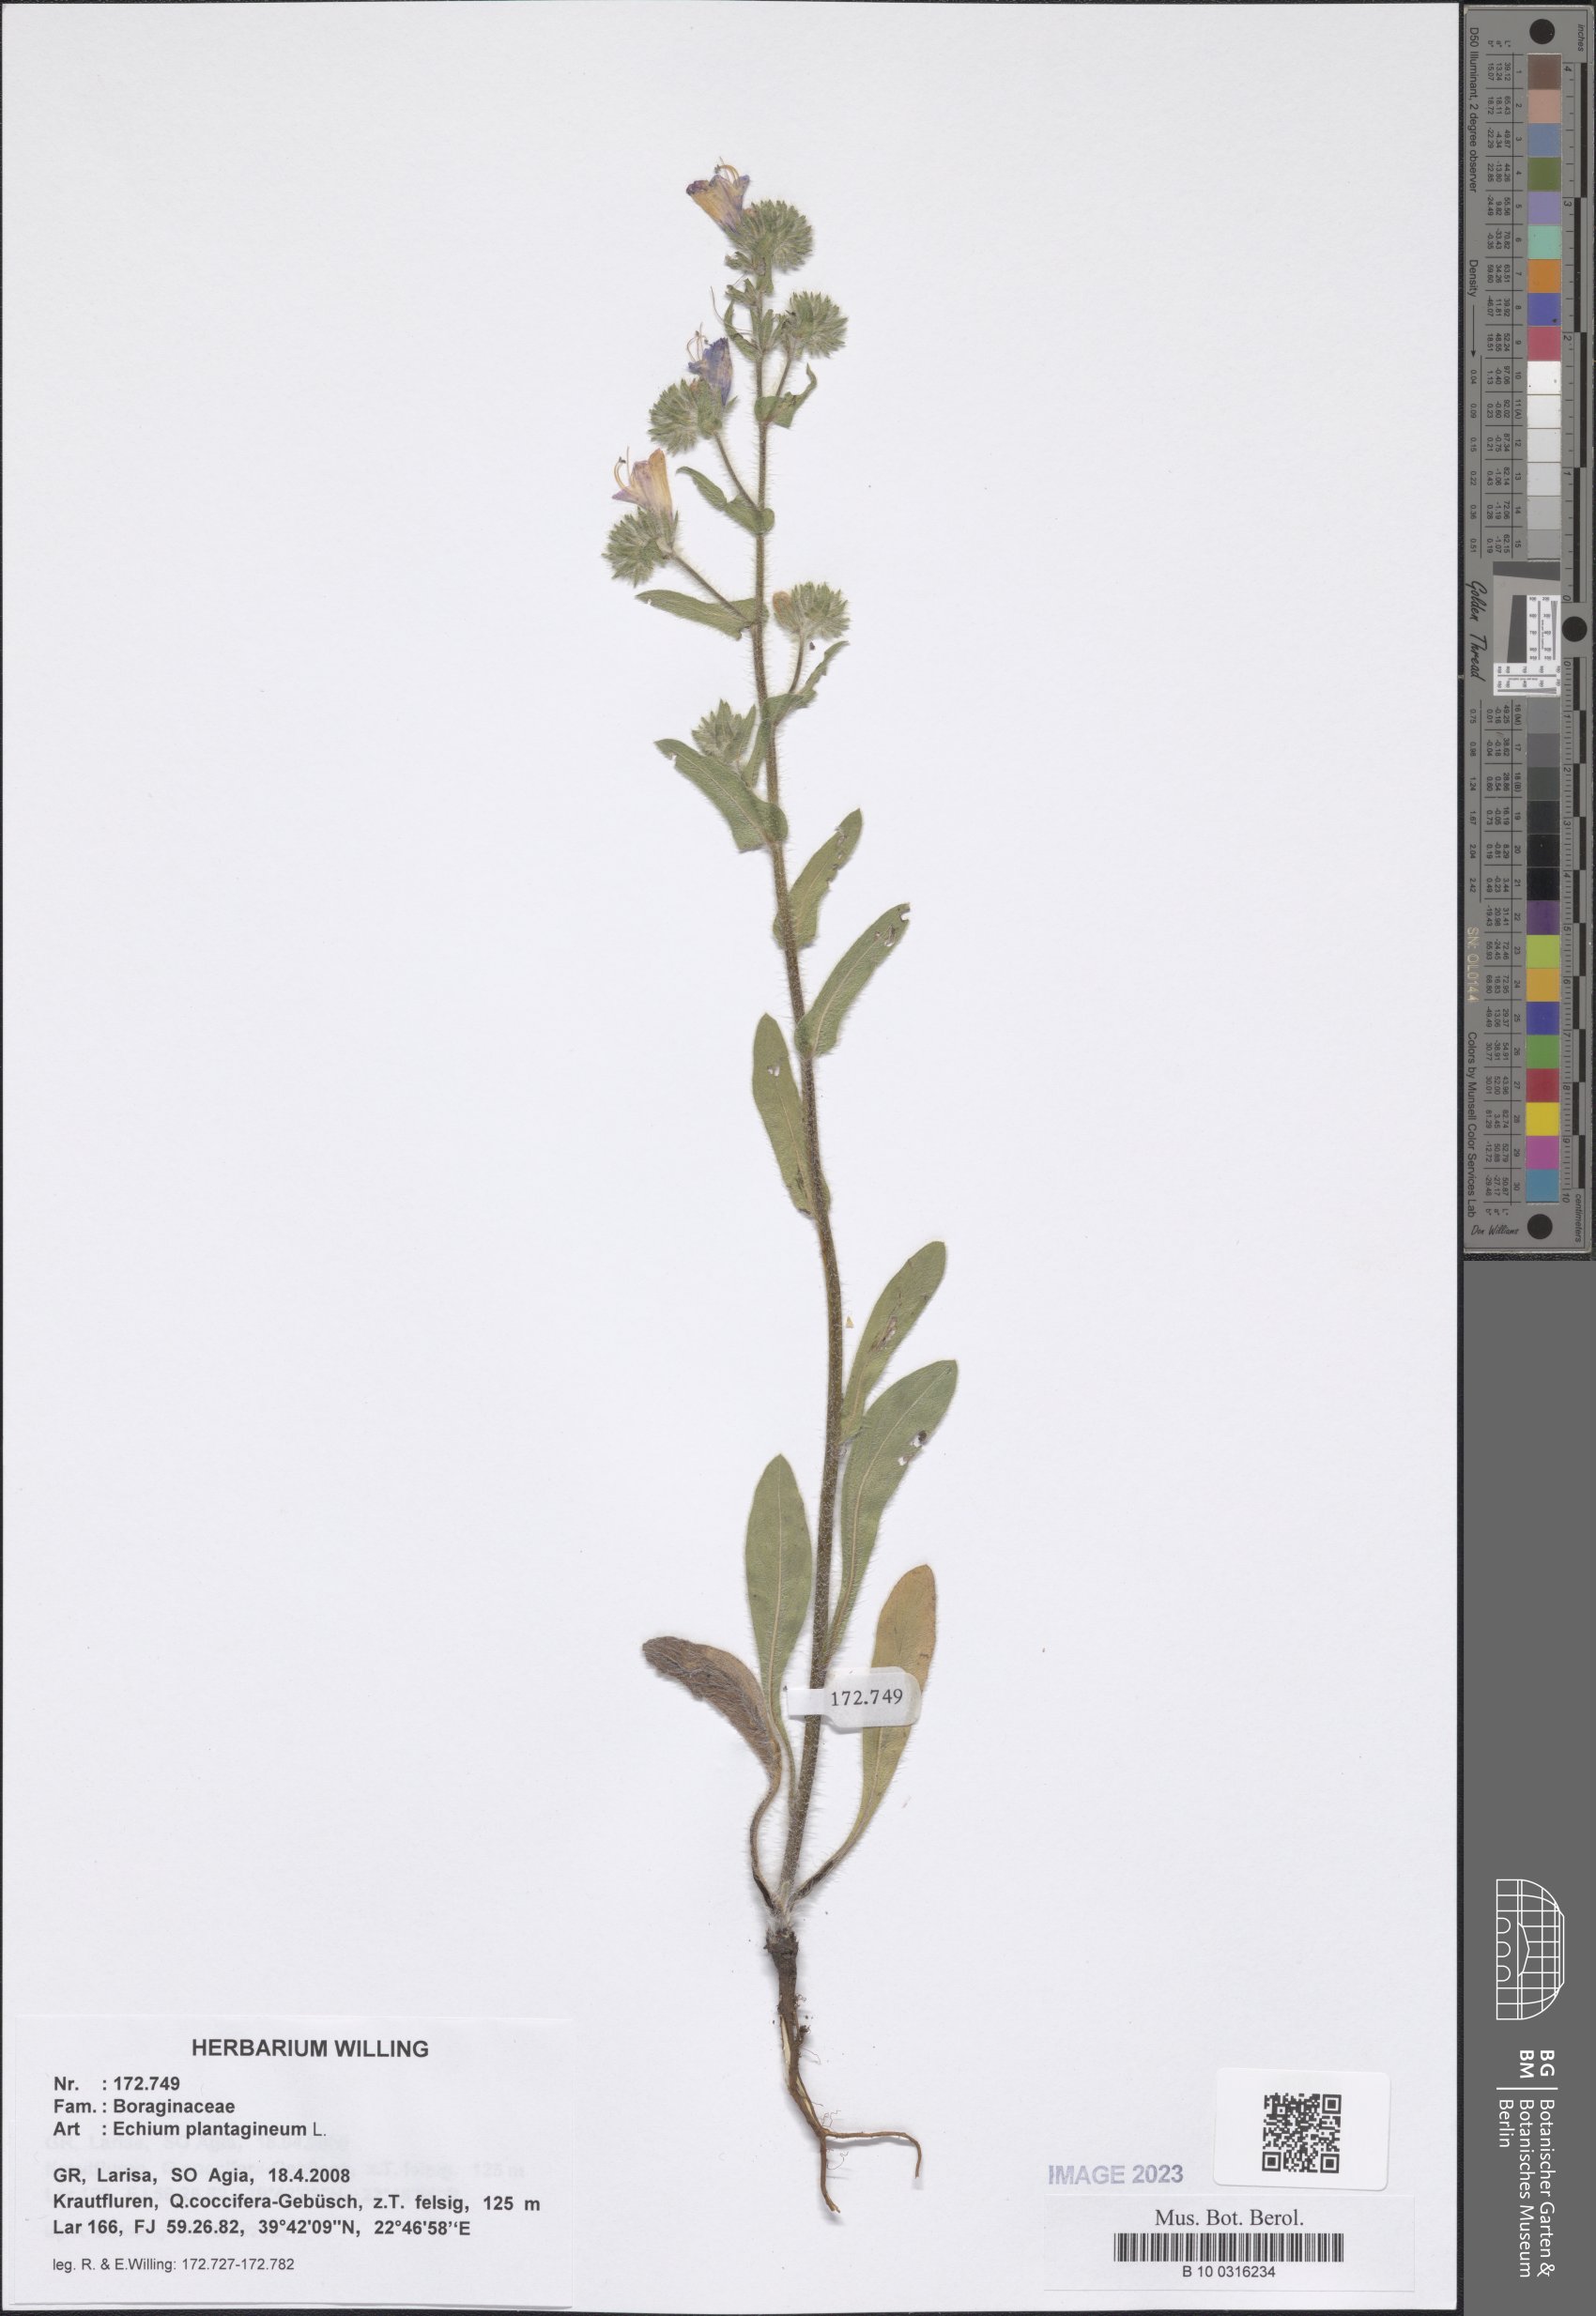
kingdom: Plantae
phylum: Tracheophyta
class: Magnoliopsida
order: Boraginales
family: Boraginaceae
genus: Echium
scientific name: Echium plantagineum
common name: Purple viper's-bugloss
